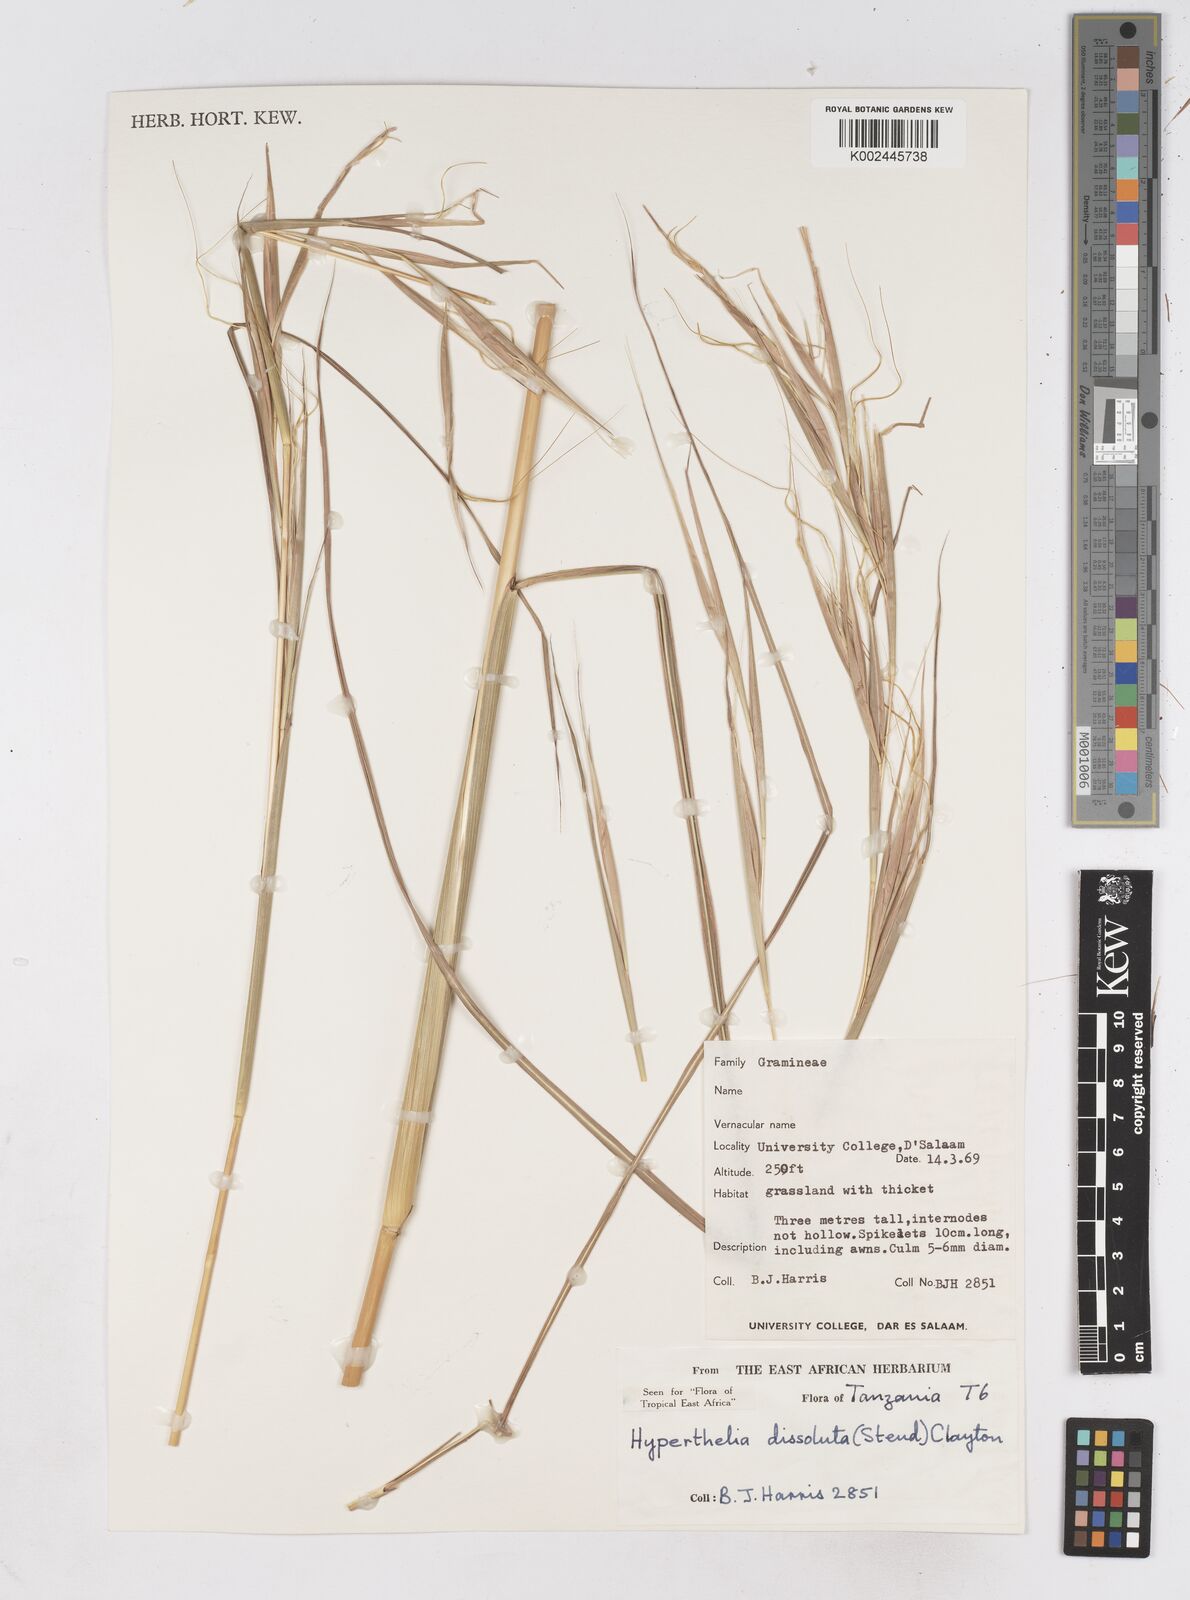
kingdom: Plantae
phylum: Tracheophyta
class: Liliopsida
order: Poales
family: Poaceae
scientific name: Poaceae
